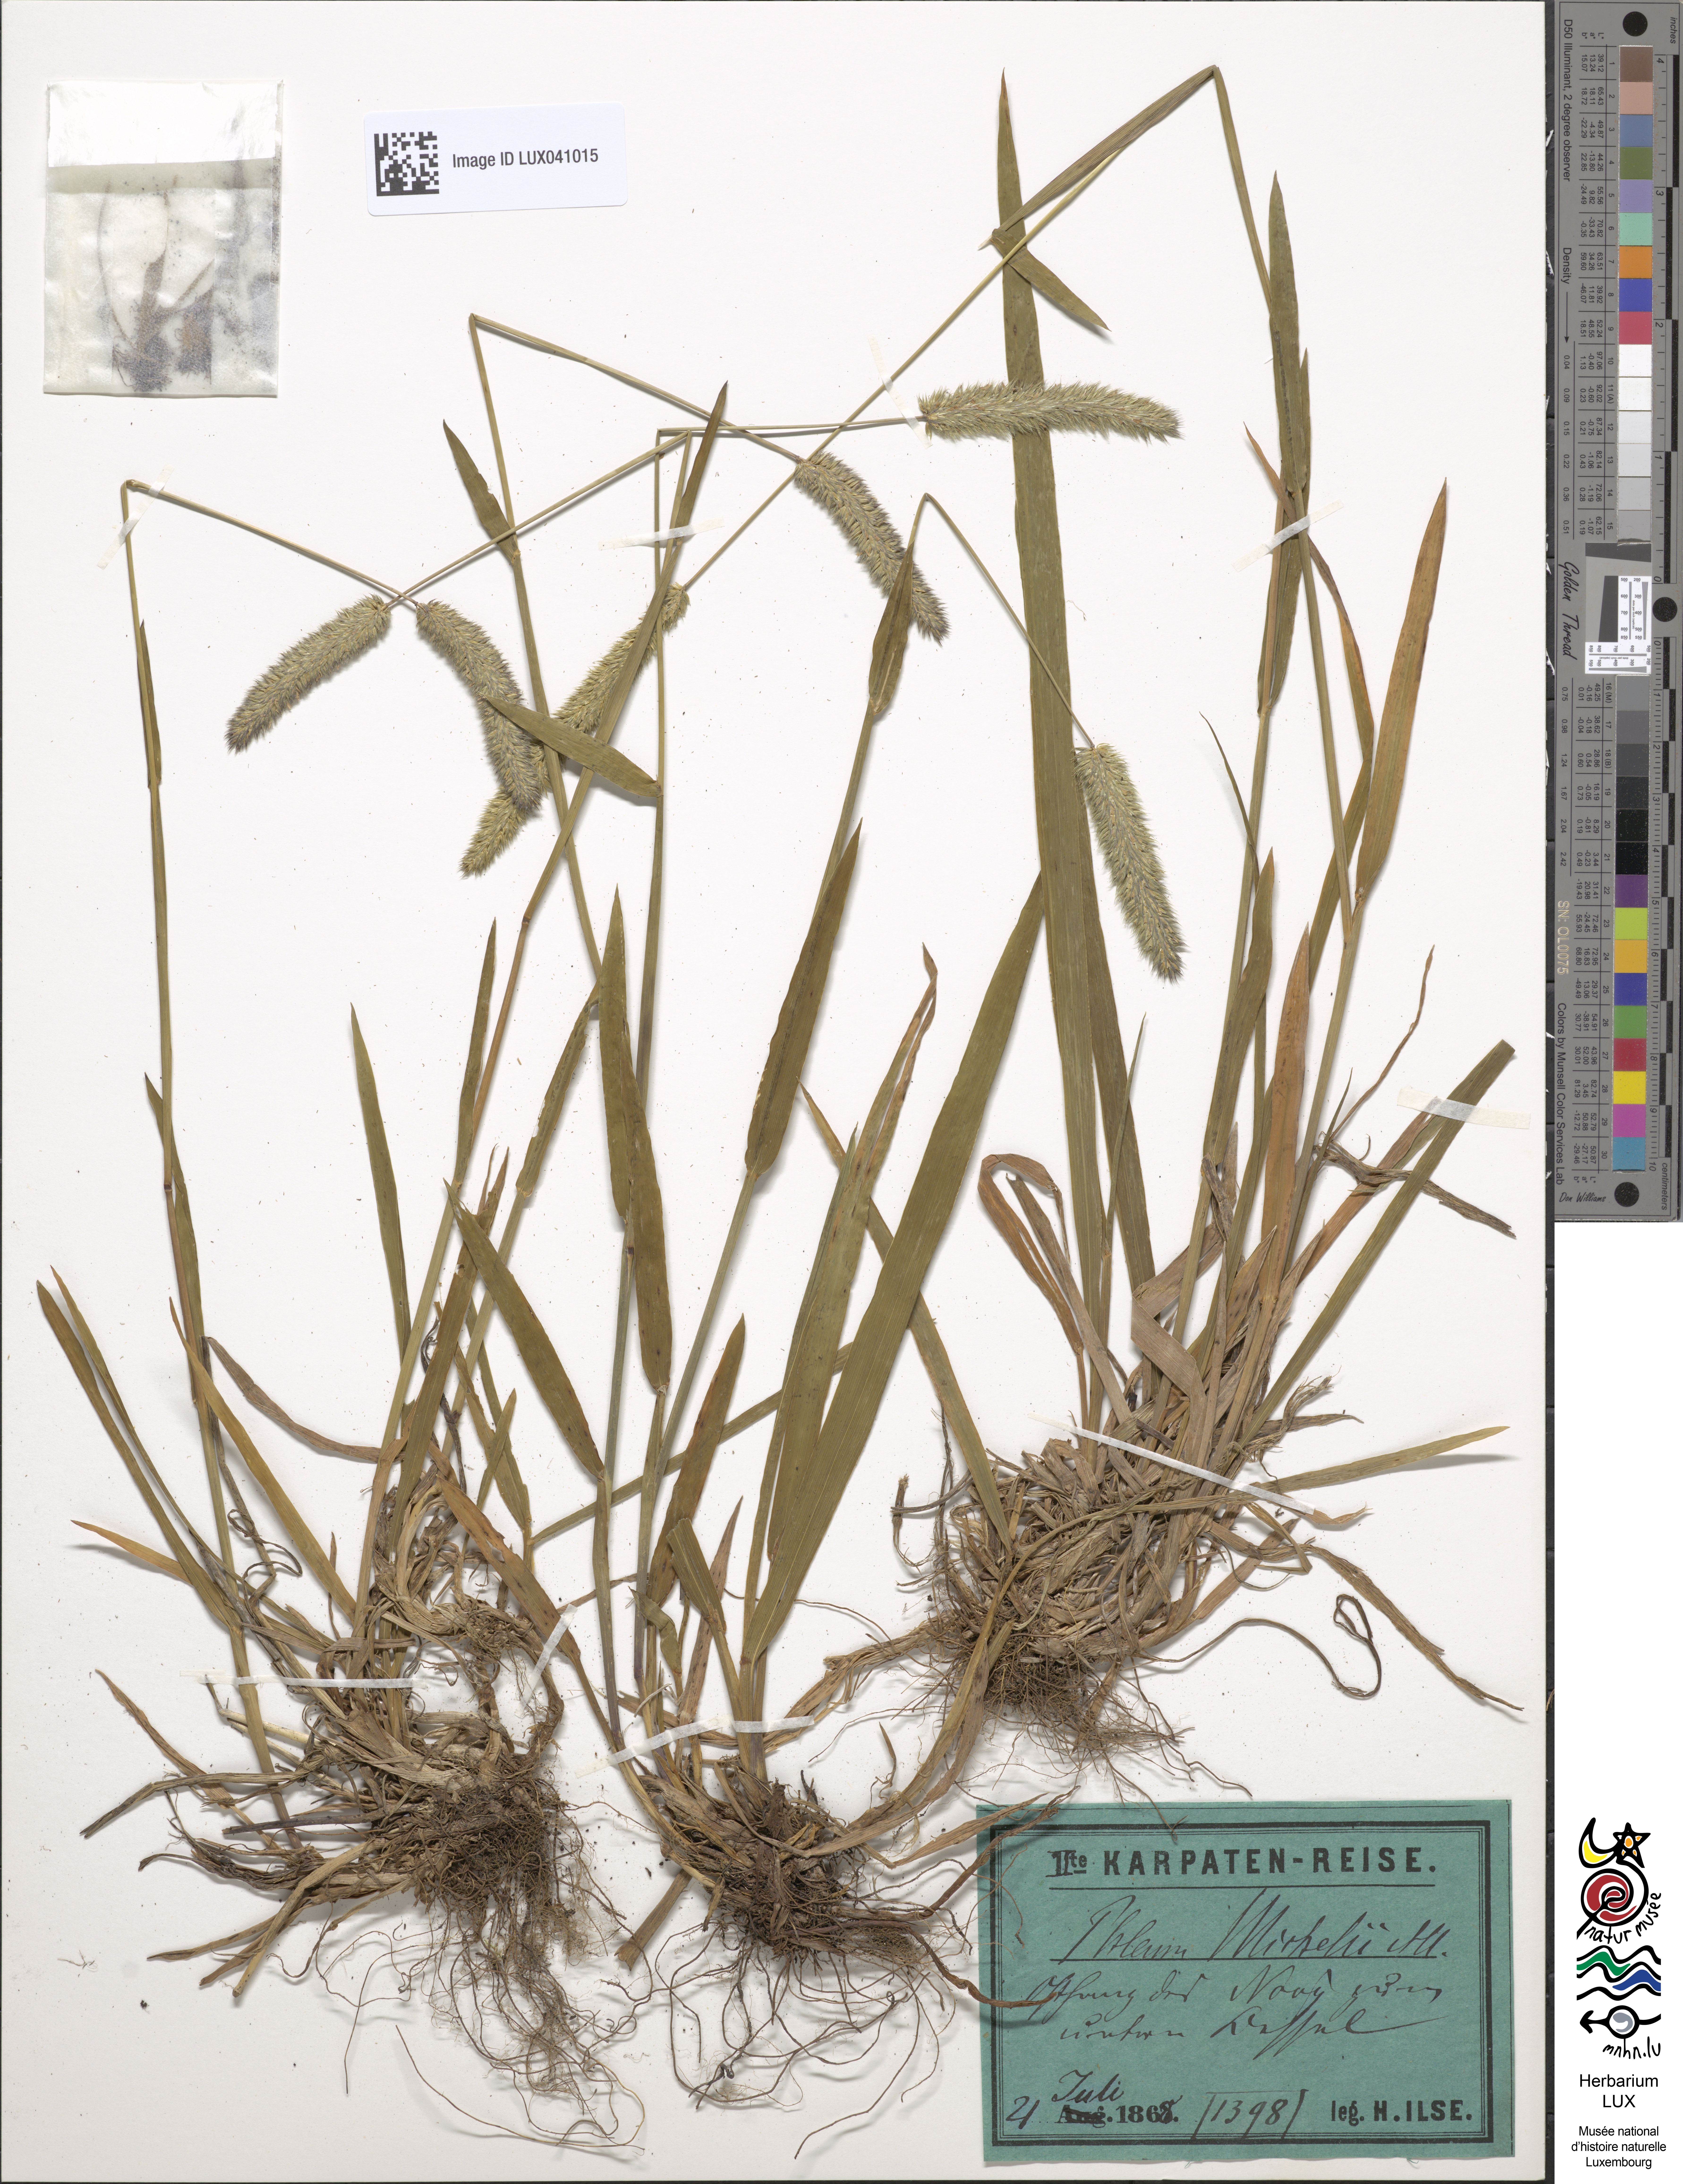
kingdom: Plantae
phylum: Tracheophyta
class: Liliopsida
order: Poales
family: Poaceae
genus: Phleum
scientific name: Phleum hirsutum
